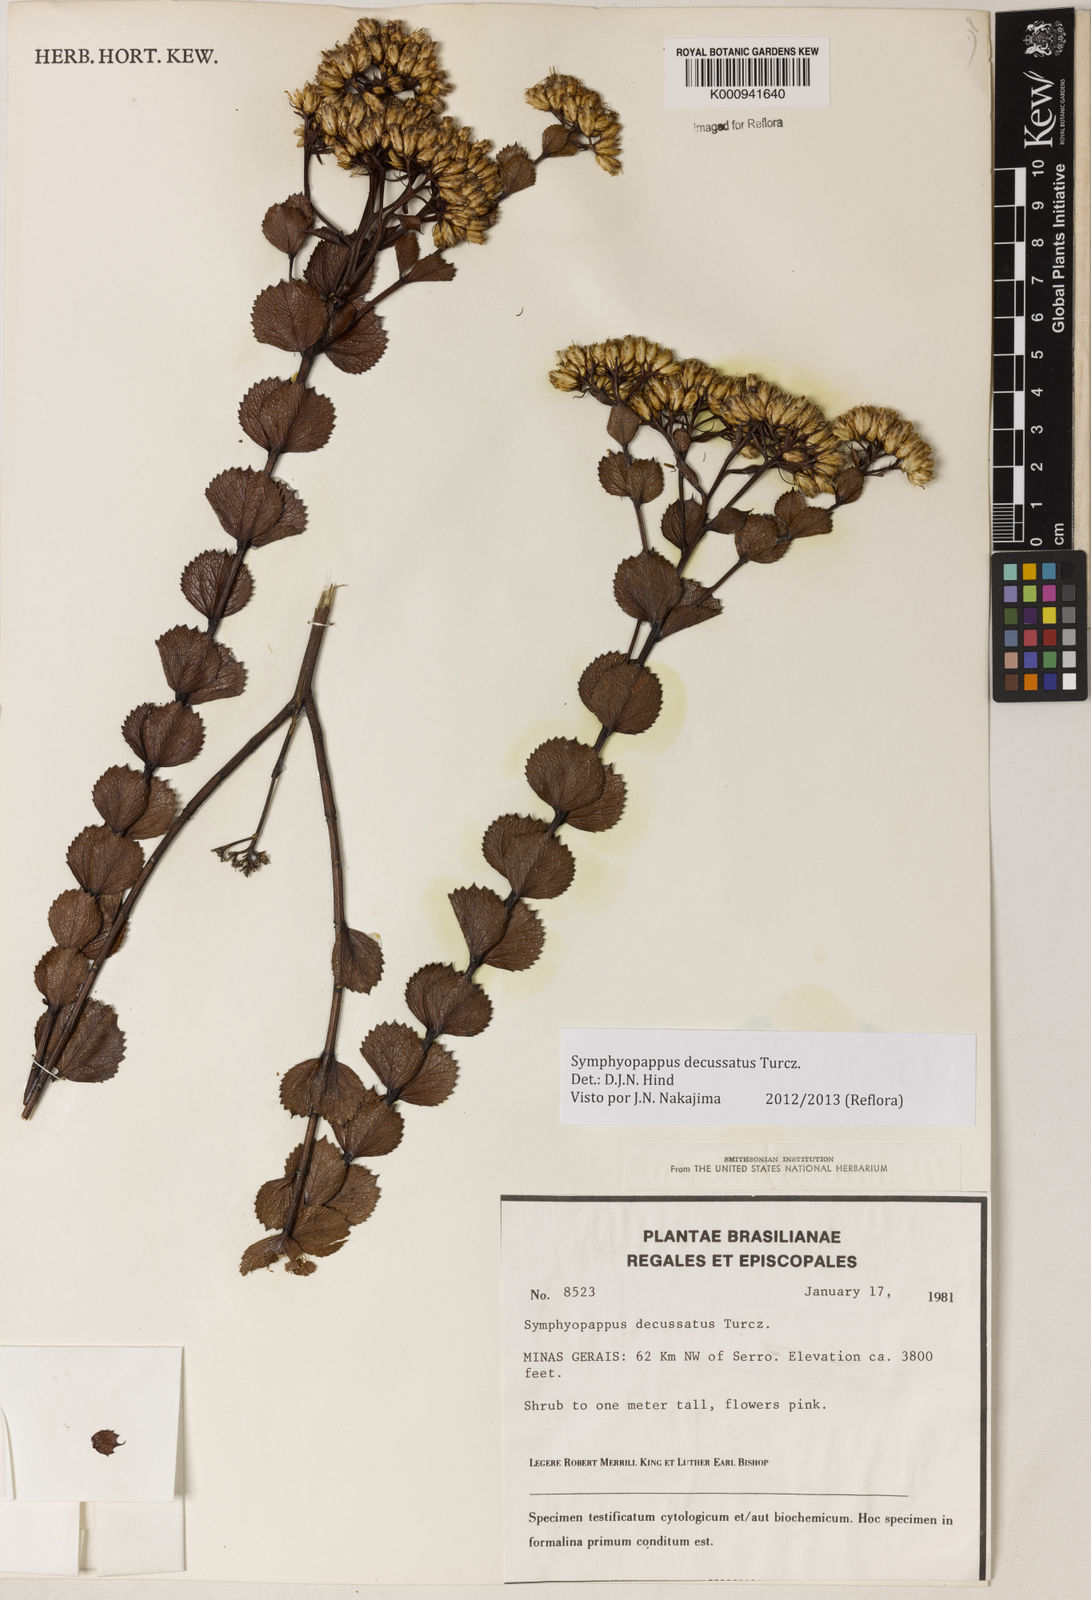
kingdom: Plantae
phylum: Tracheophyta
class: Magnoliopsida
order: Asterales
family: Asteraceae
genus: Symphyopappus
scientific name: Symphyopappus decussatus
